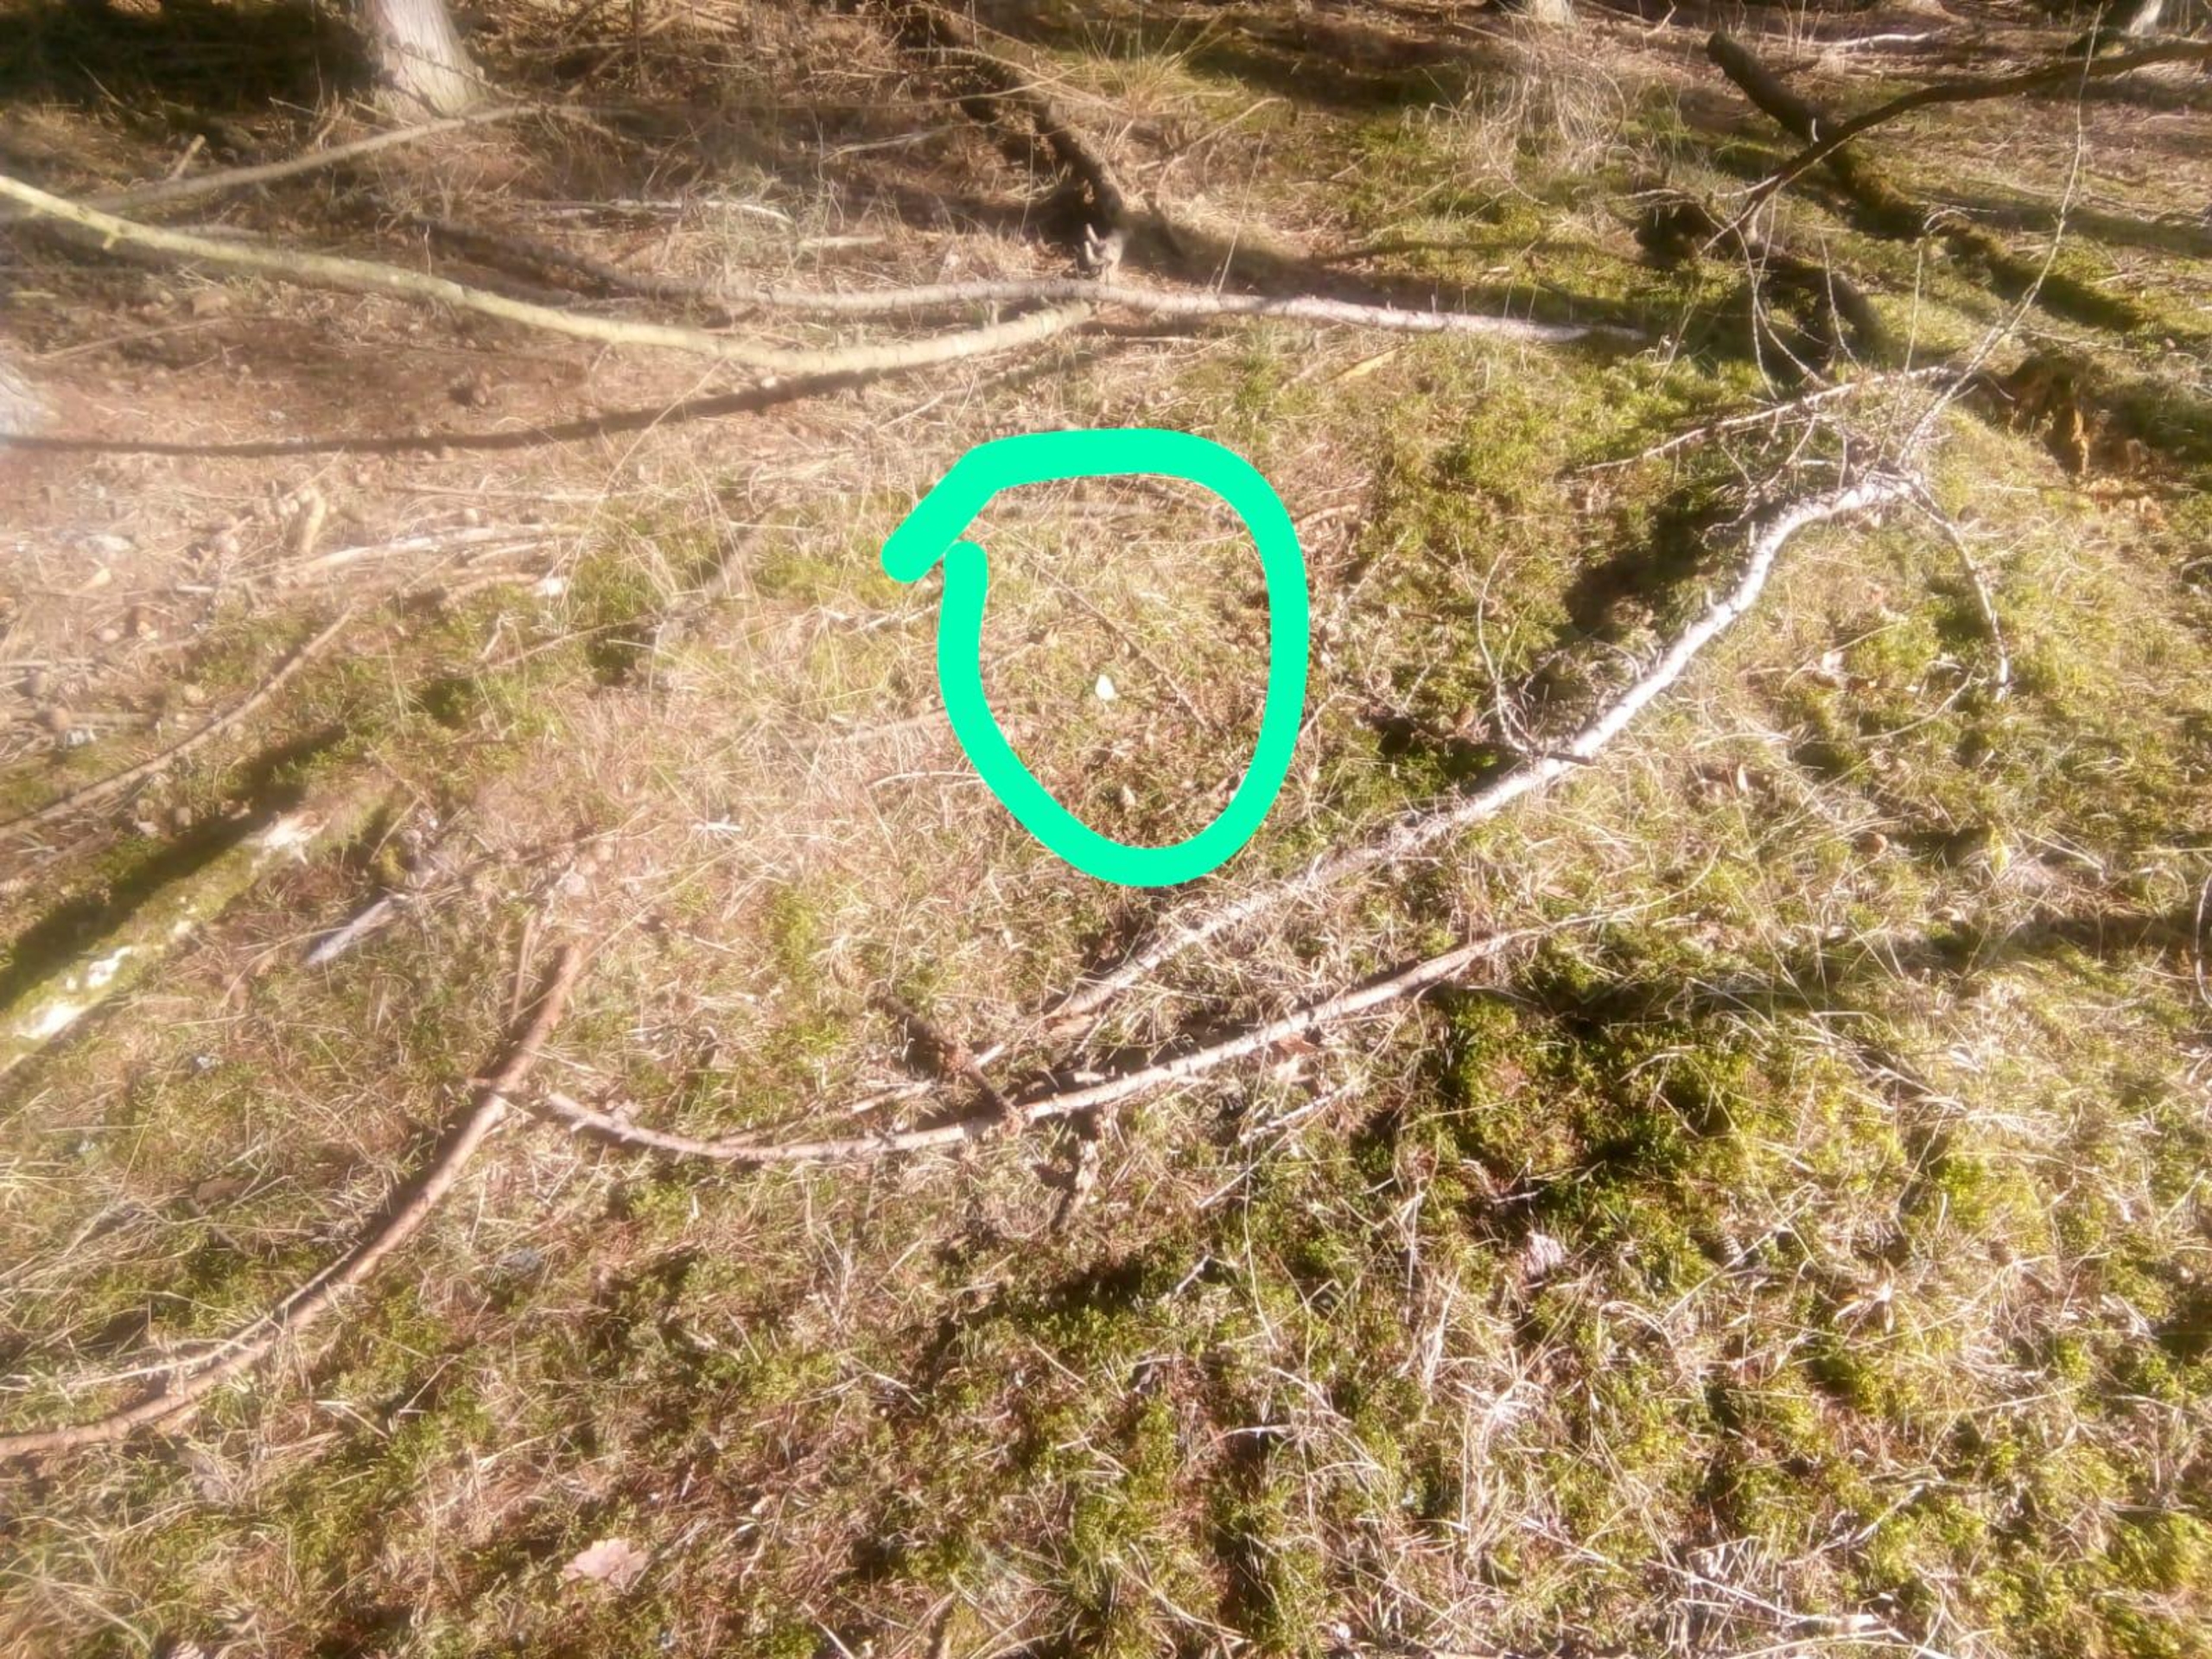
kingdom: Animalia
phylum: Arthropoda
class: Insecta
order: Lepidoptera
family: Pieridae
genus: Gonepteryx
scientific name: Gonepteryx rhamni
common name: Citronsommerfugl
